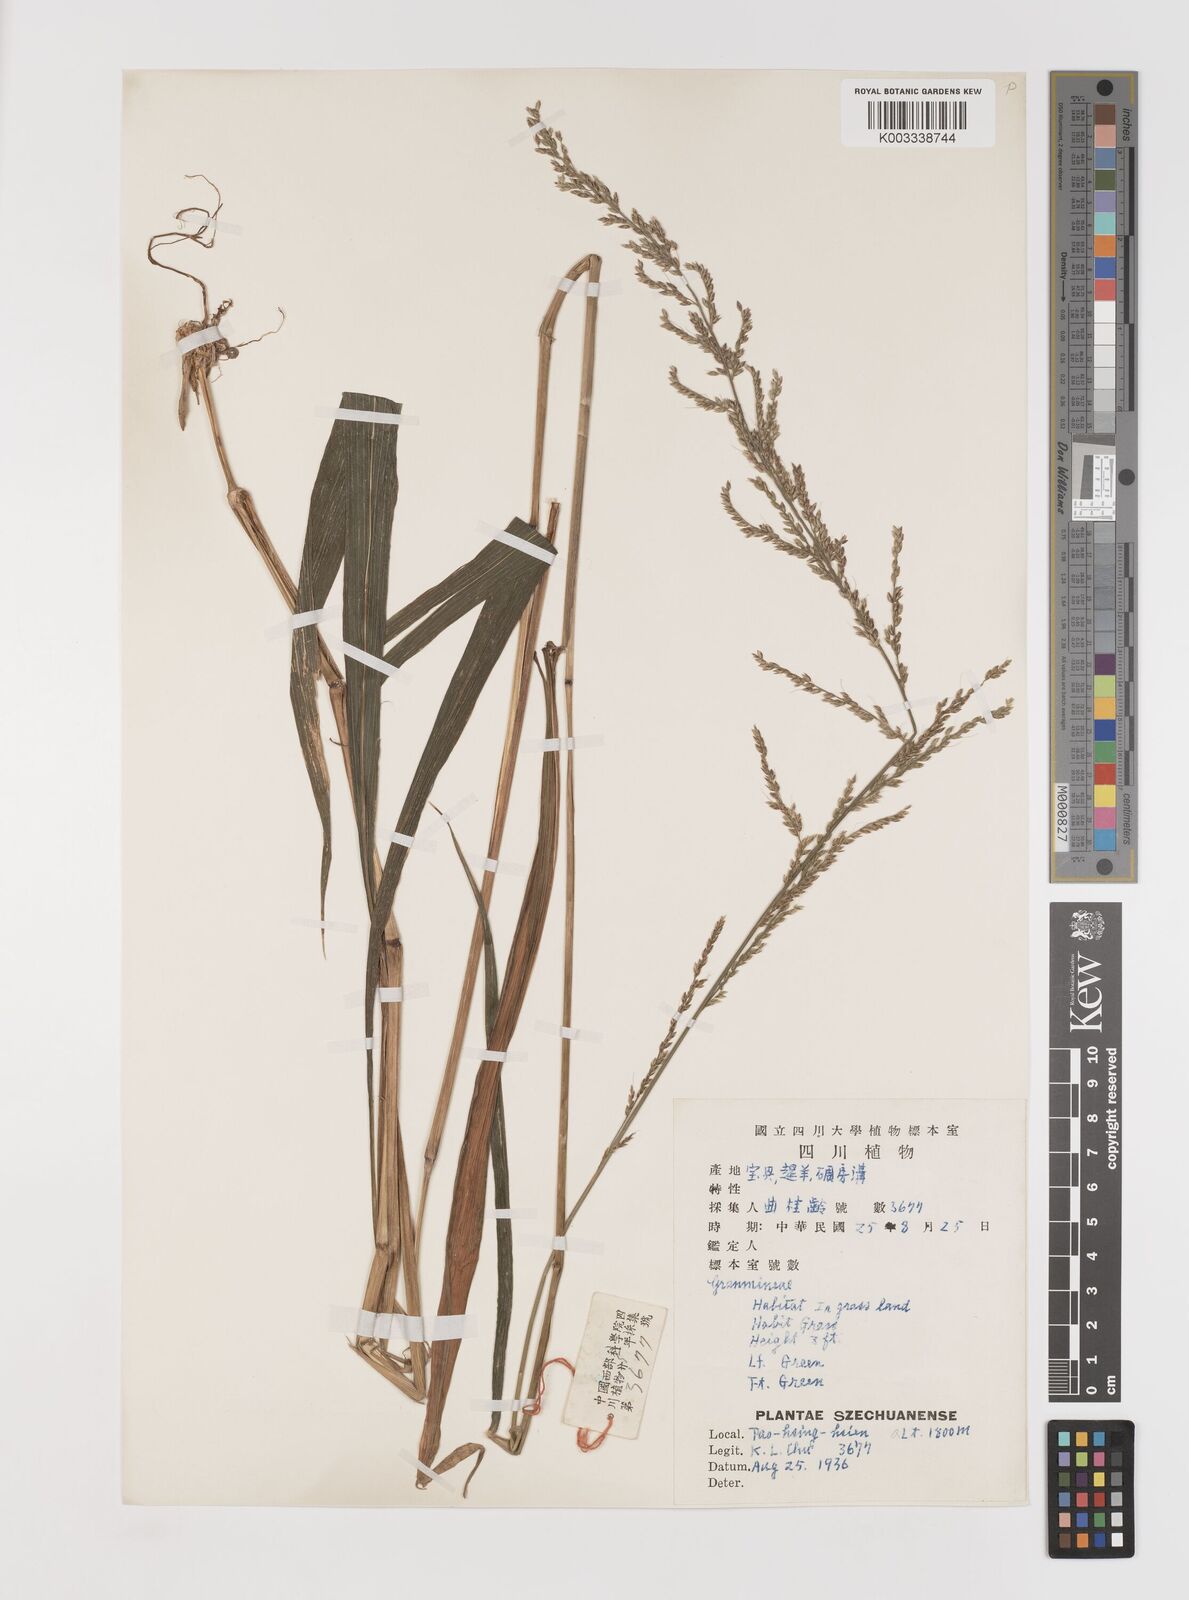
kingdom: Plantae
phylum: Tracheophyta
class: Liliopsida
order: Poales
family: Poaceae
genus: Setaria
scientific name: Setaria plicata
